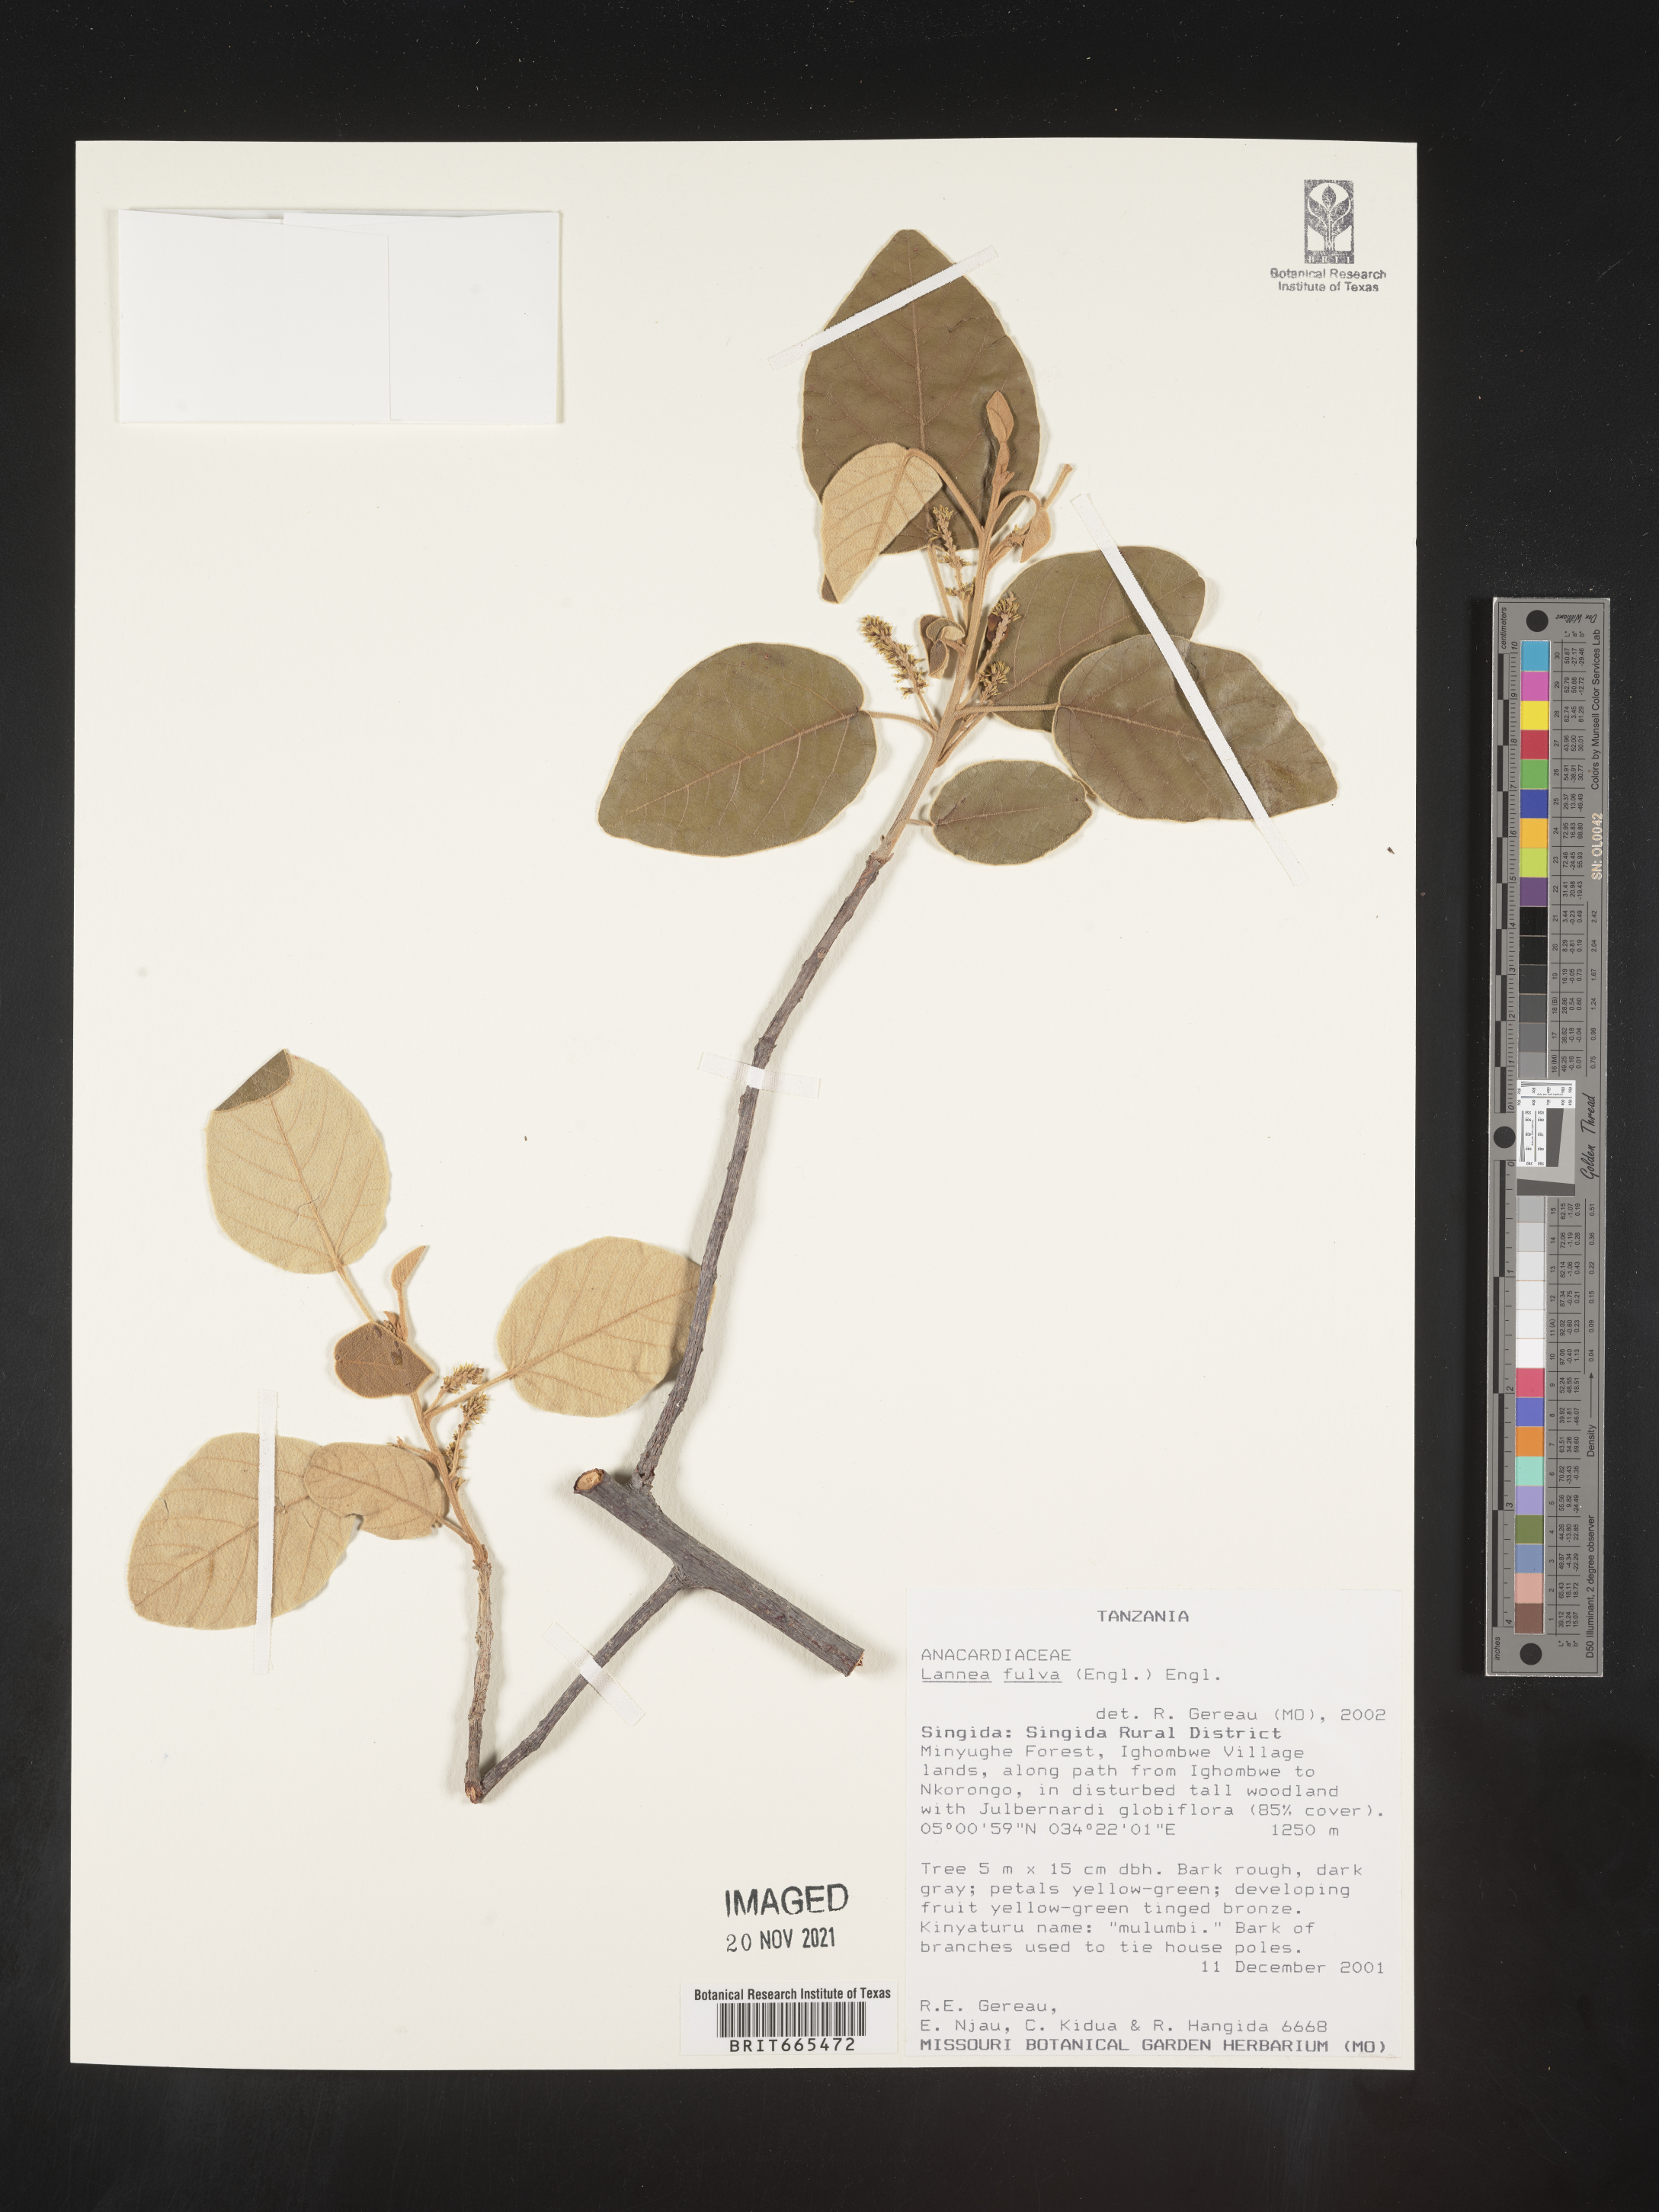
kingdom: Plantae
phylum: Tracheophyta
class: Magnoliopsida
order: Sapindales
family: Anacardiaceae
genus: Lannea
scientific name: Lannea
